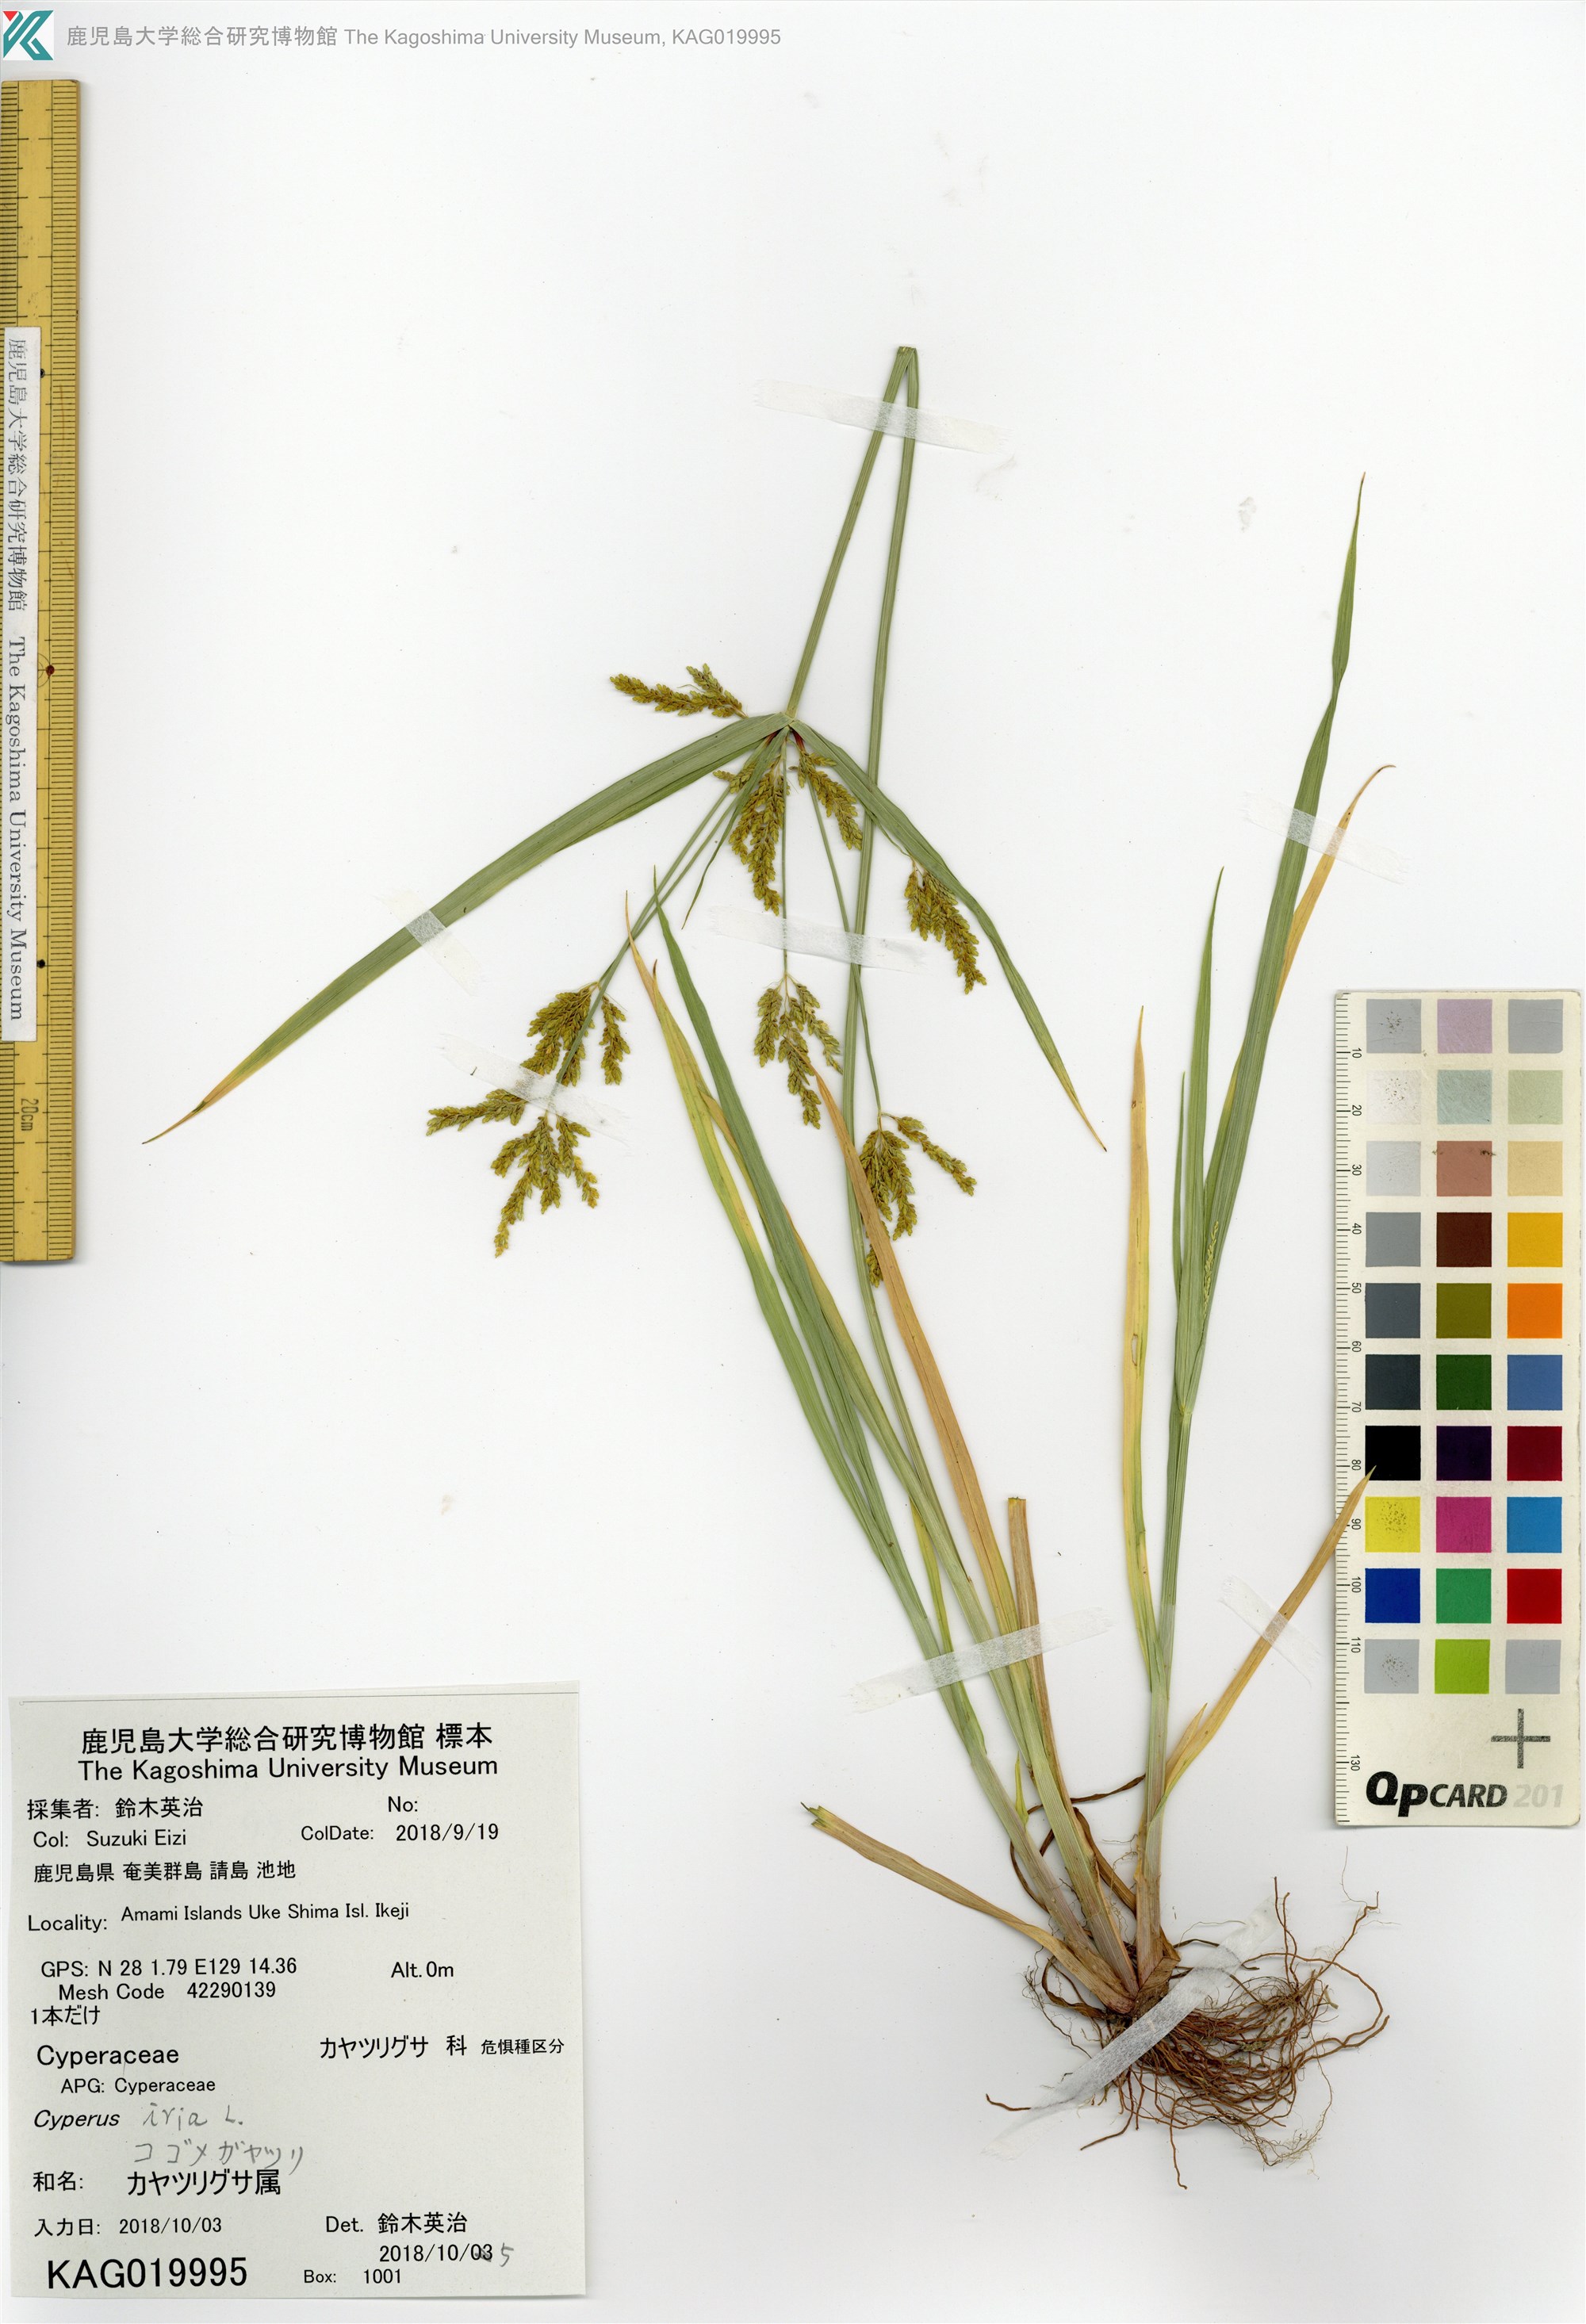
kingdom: Plantae
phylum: Tracheophyta
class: Liliopsida
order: Poales
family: Cyperaceae
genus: Cyperus
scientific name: Cyperus iria
